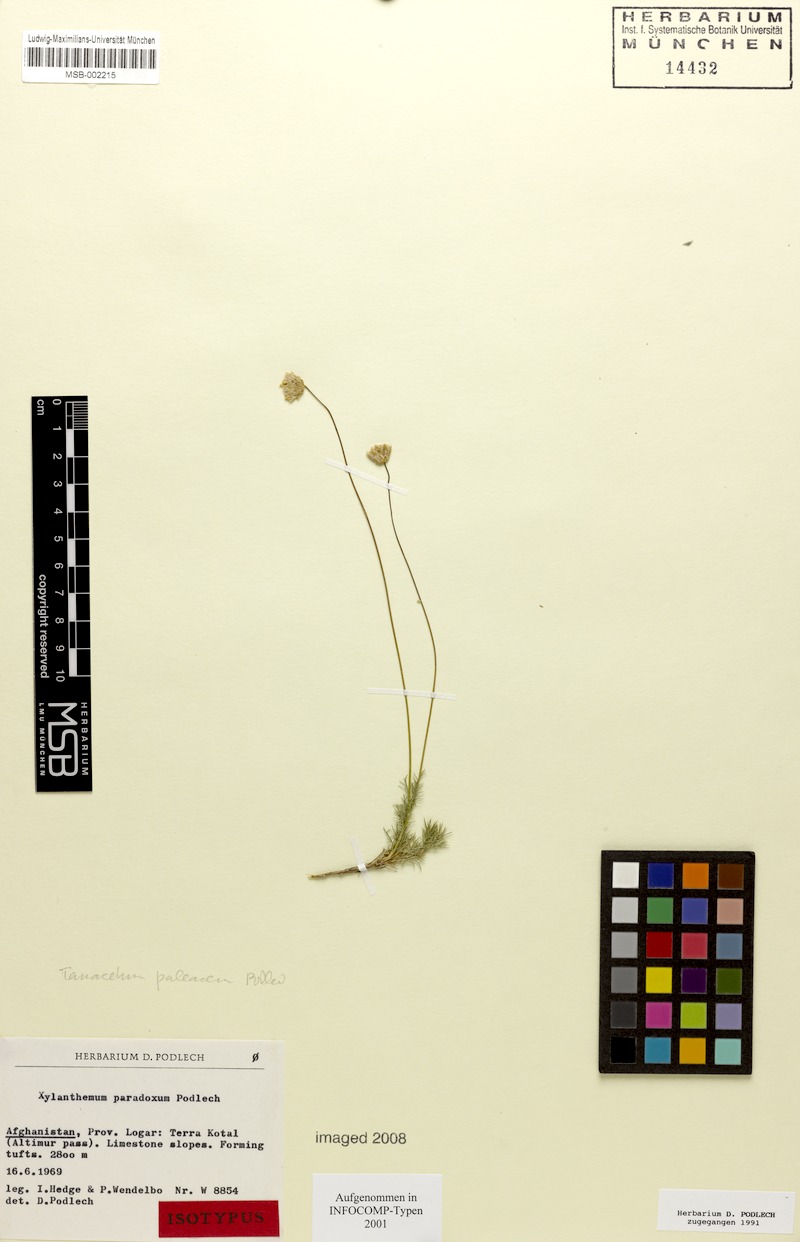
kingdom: Plantae
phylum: Tracheophyta
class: Magnoliopsida
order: Asterales
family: Asteraceae
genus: Xylanthemum
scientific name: Xylanthemum paleaceum
